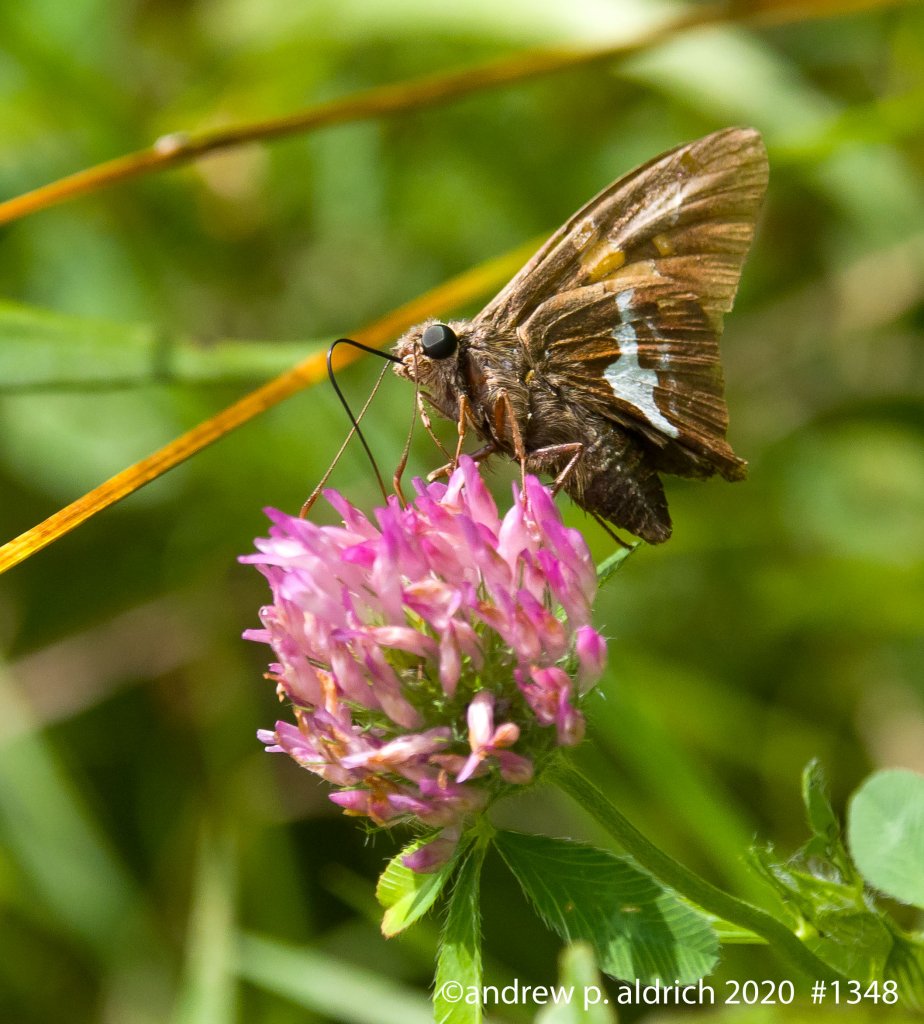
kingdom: Animalia
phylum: Arthropoda
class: Insecta
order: Lepidoptera
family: Hesperiidae
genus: Epargyreus
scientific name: Epargyreus clarus
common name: Silver-spotted Skipper
